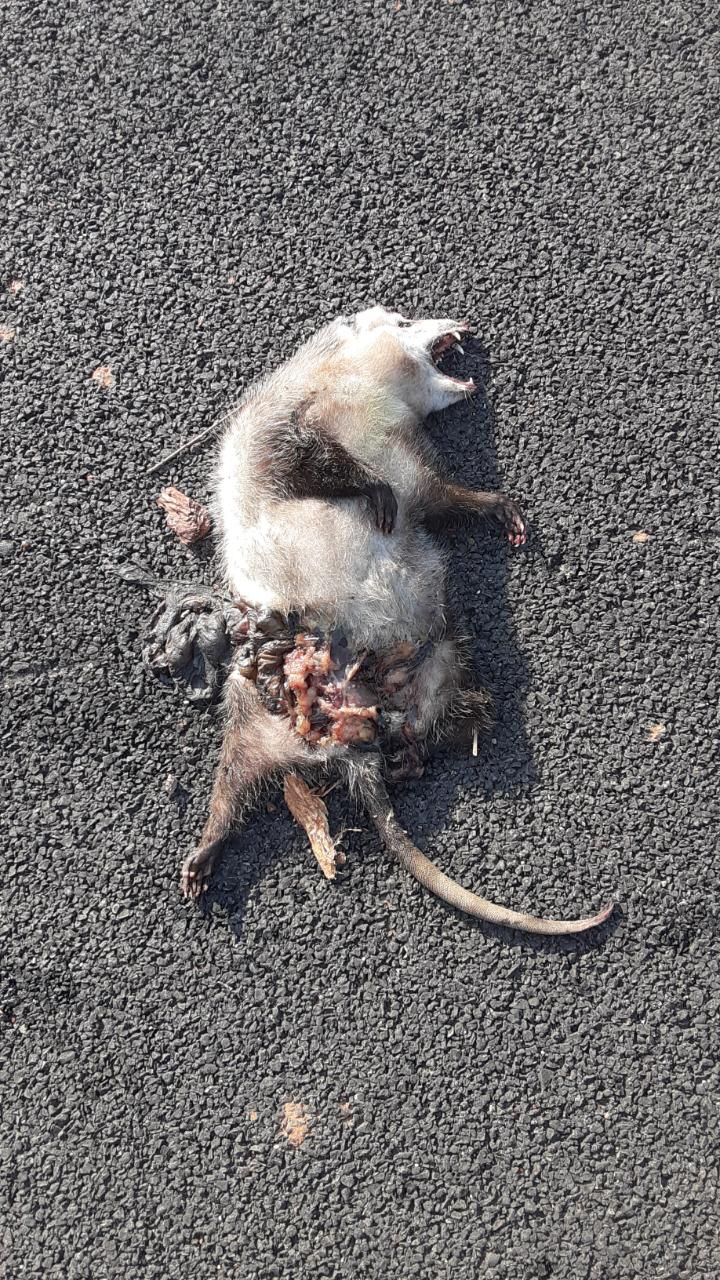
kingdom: Animalia
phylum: Chordata
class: Mammalia
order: Didelphimorphia
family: Didelphidae
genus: Didelphis
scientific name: Didelphis virginiana
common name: Virginia opossum
